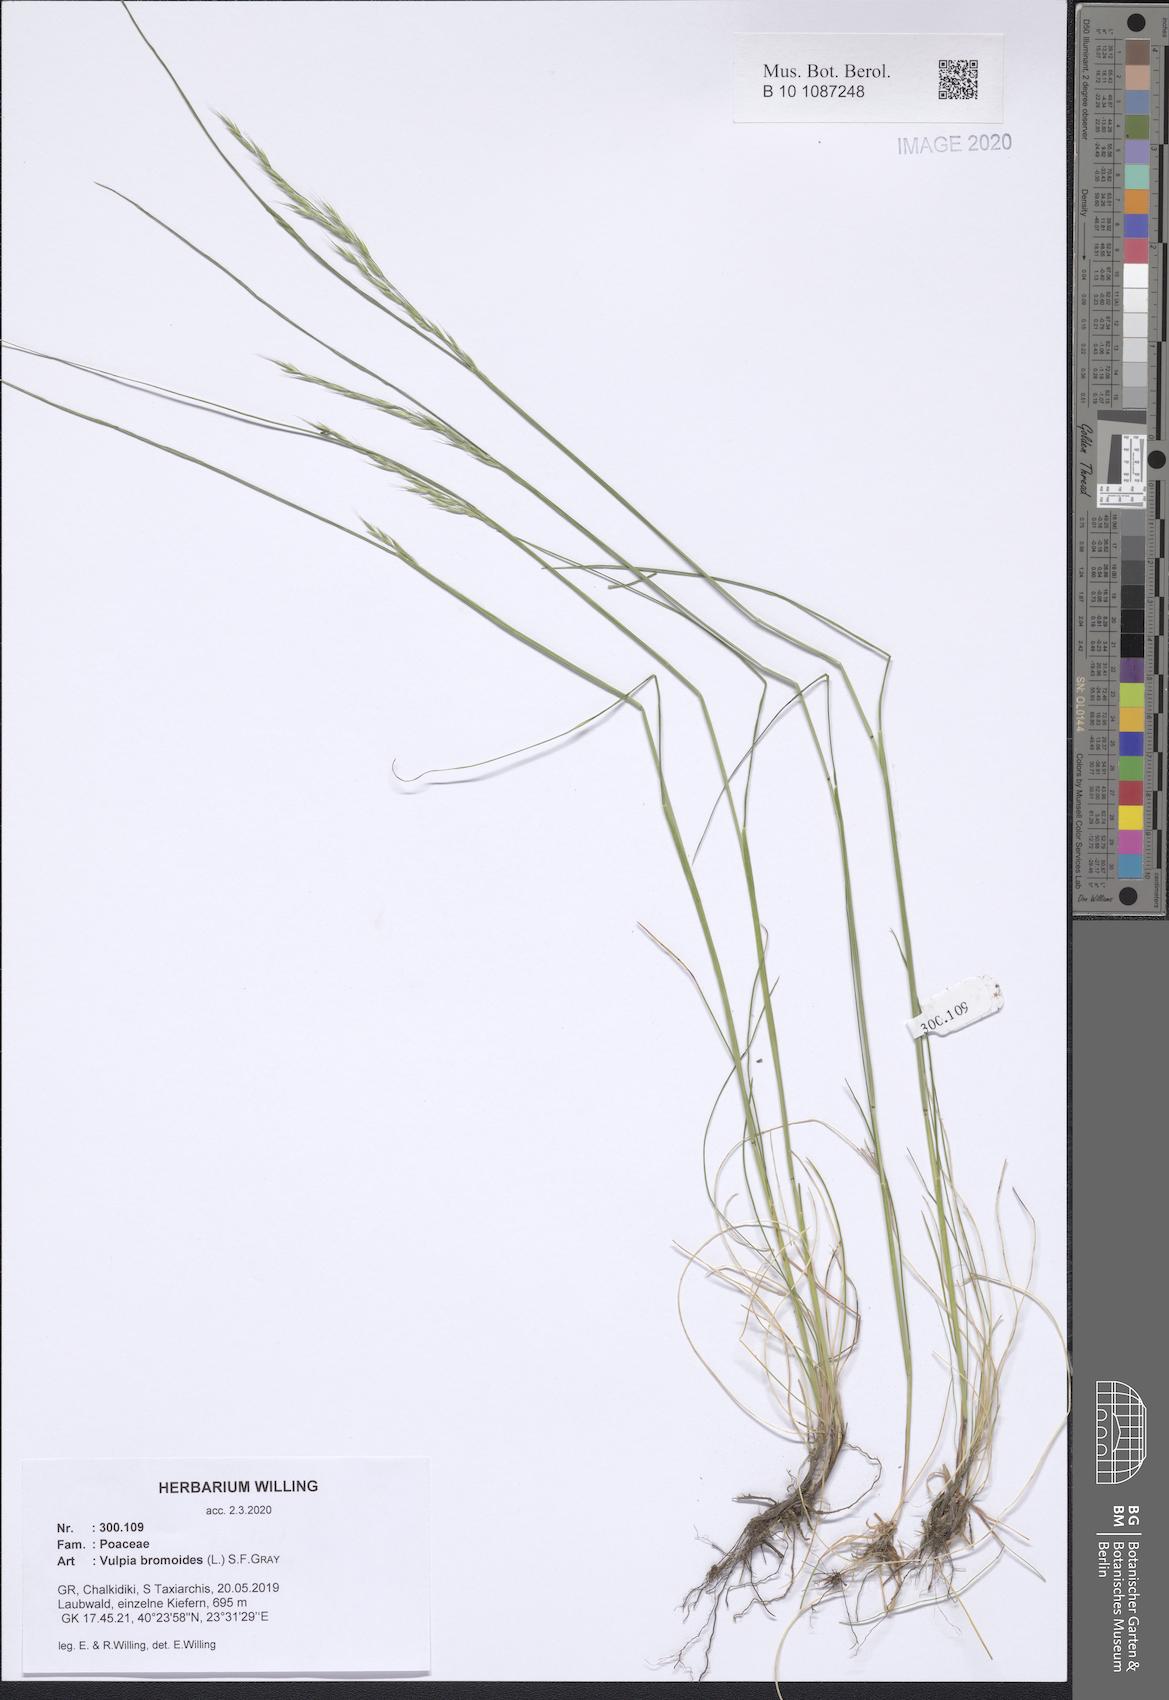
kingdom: Plantae
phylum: Tracheophyta
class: Liliopsida
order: Poales
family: Poaceae
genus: Festuca
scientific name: Festuca bromoides
